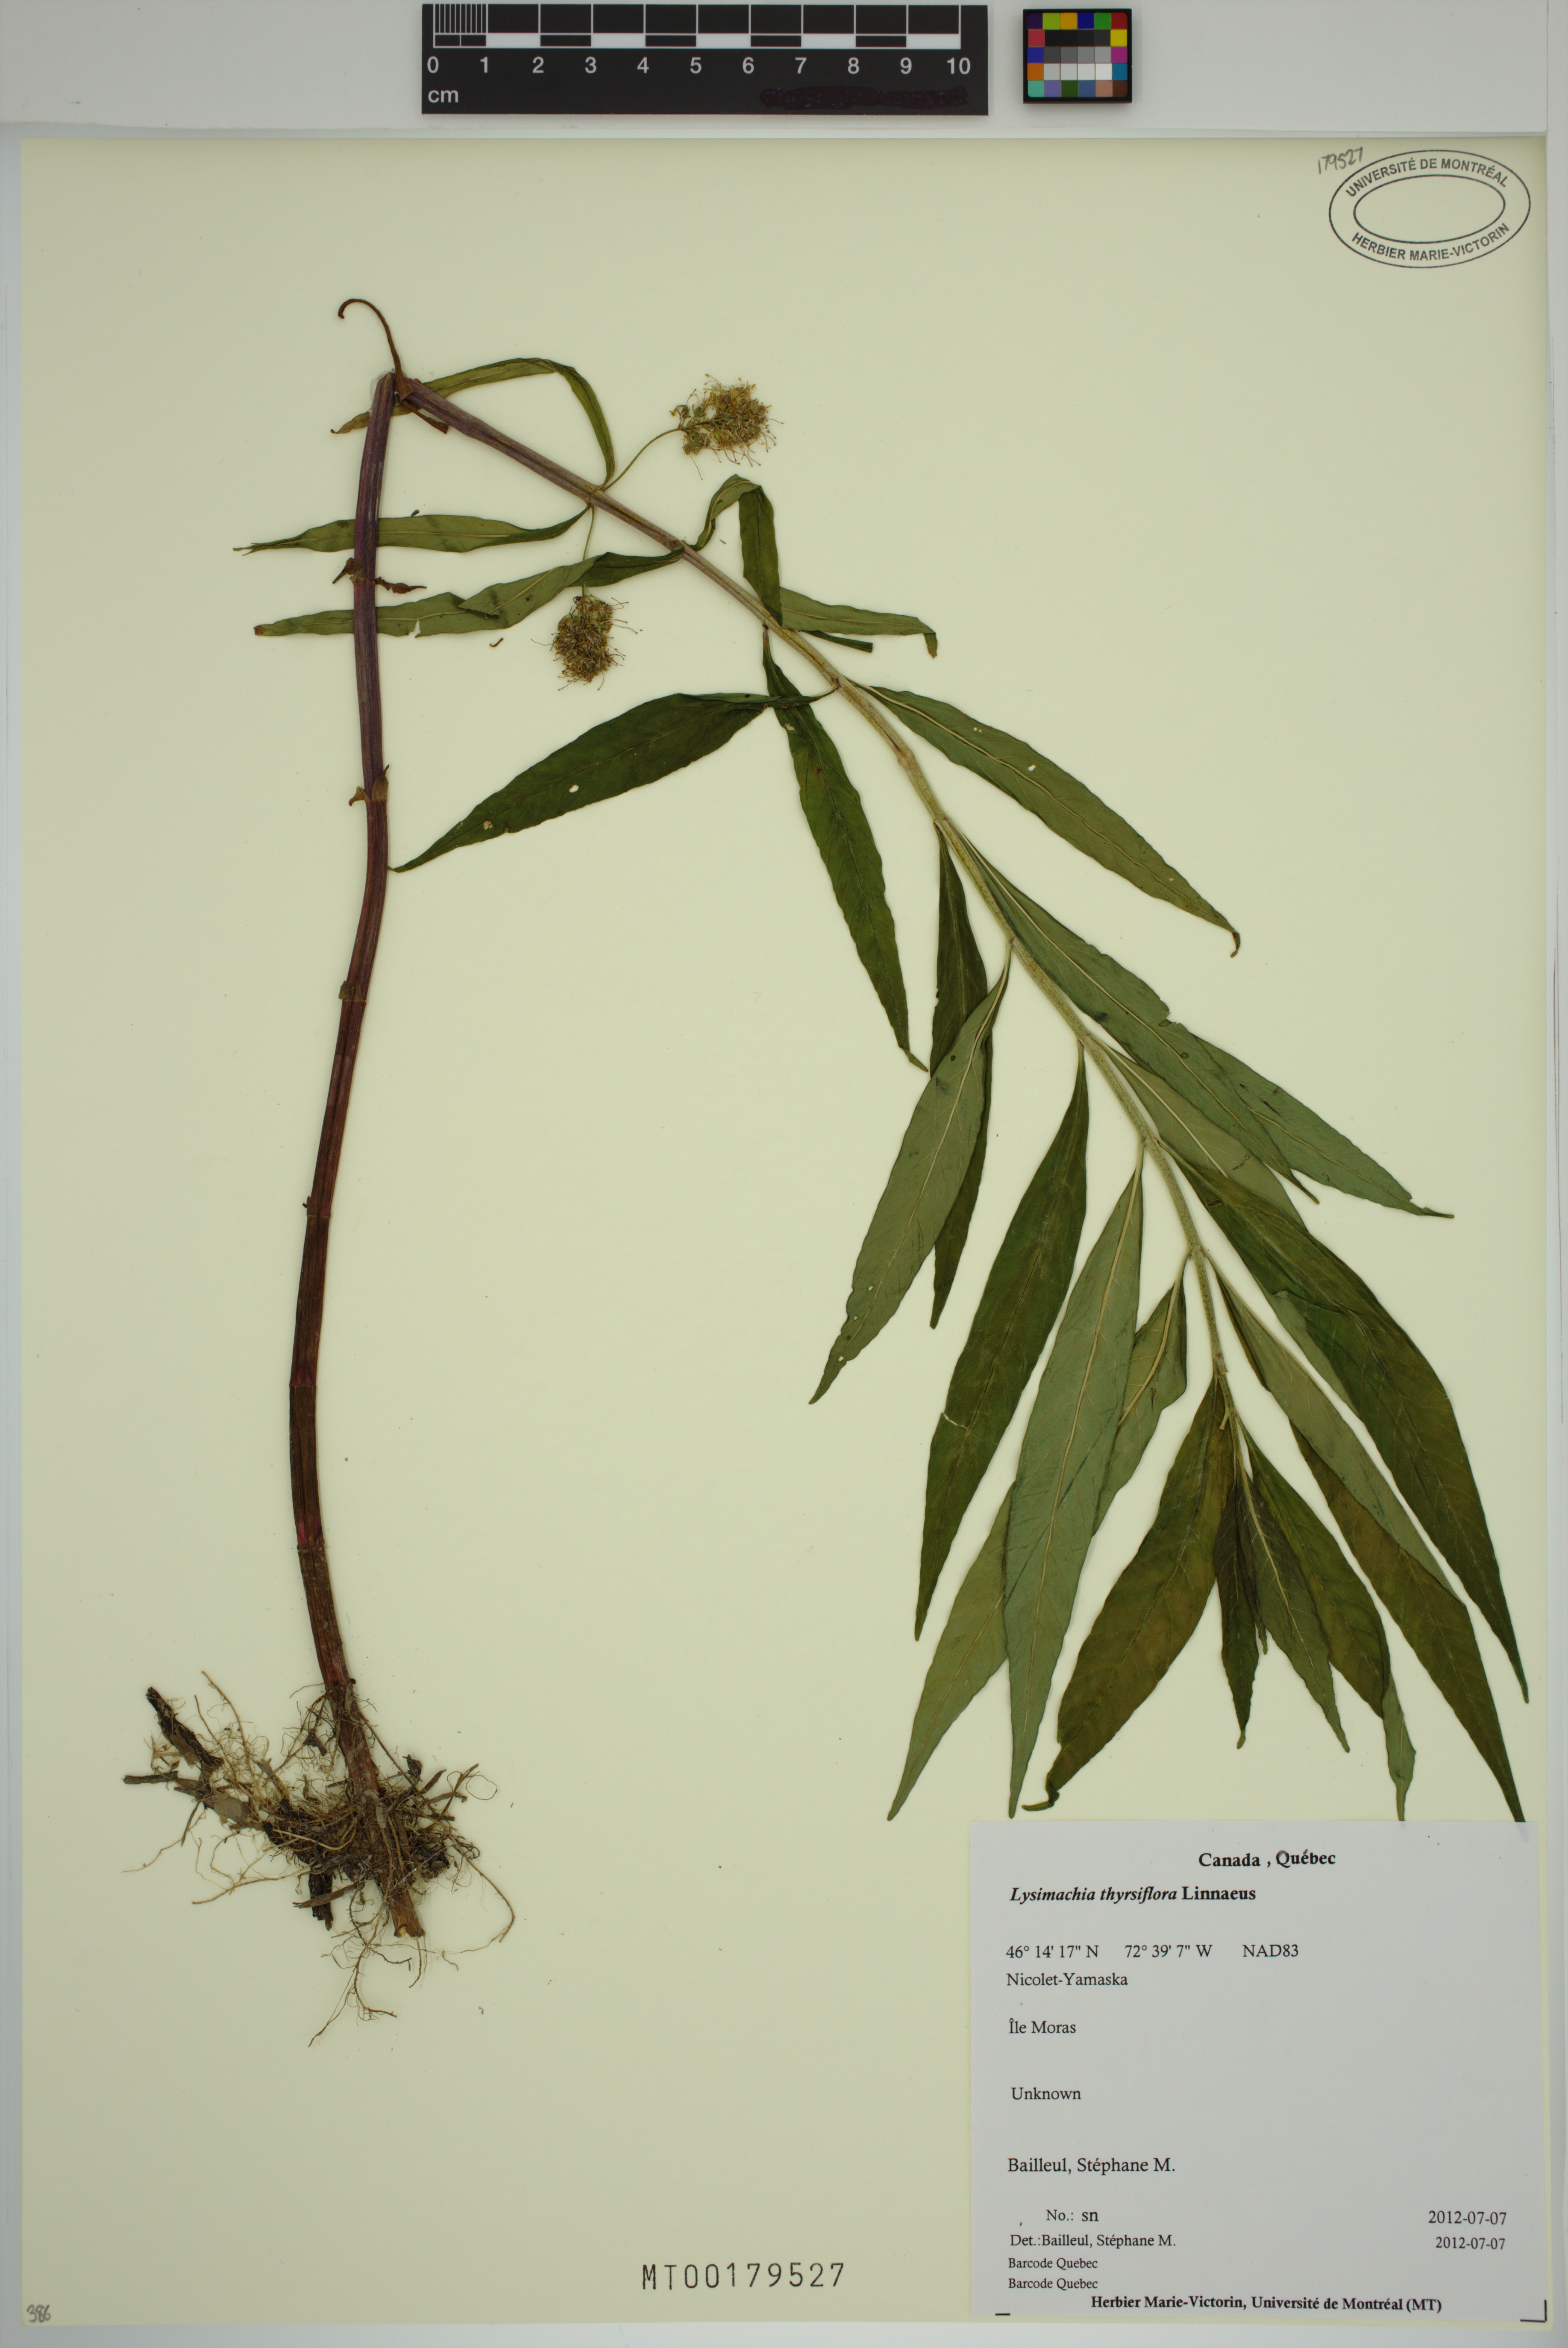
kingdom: Plantae
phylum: Tracheophyta
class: Magnoliopsida
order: Ericales
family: Primulaceae
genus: Lysimachia
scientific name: Lysimachia thyrsiflora
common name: Tufted loosestrife
